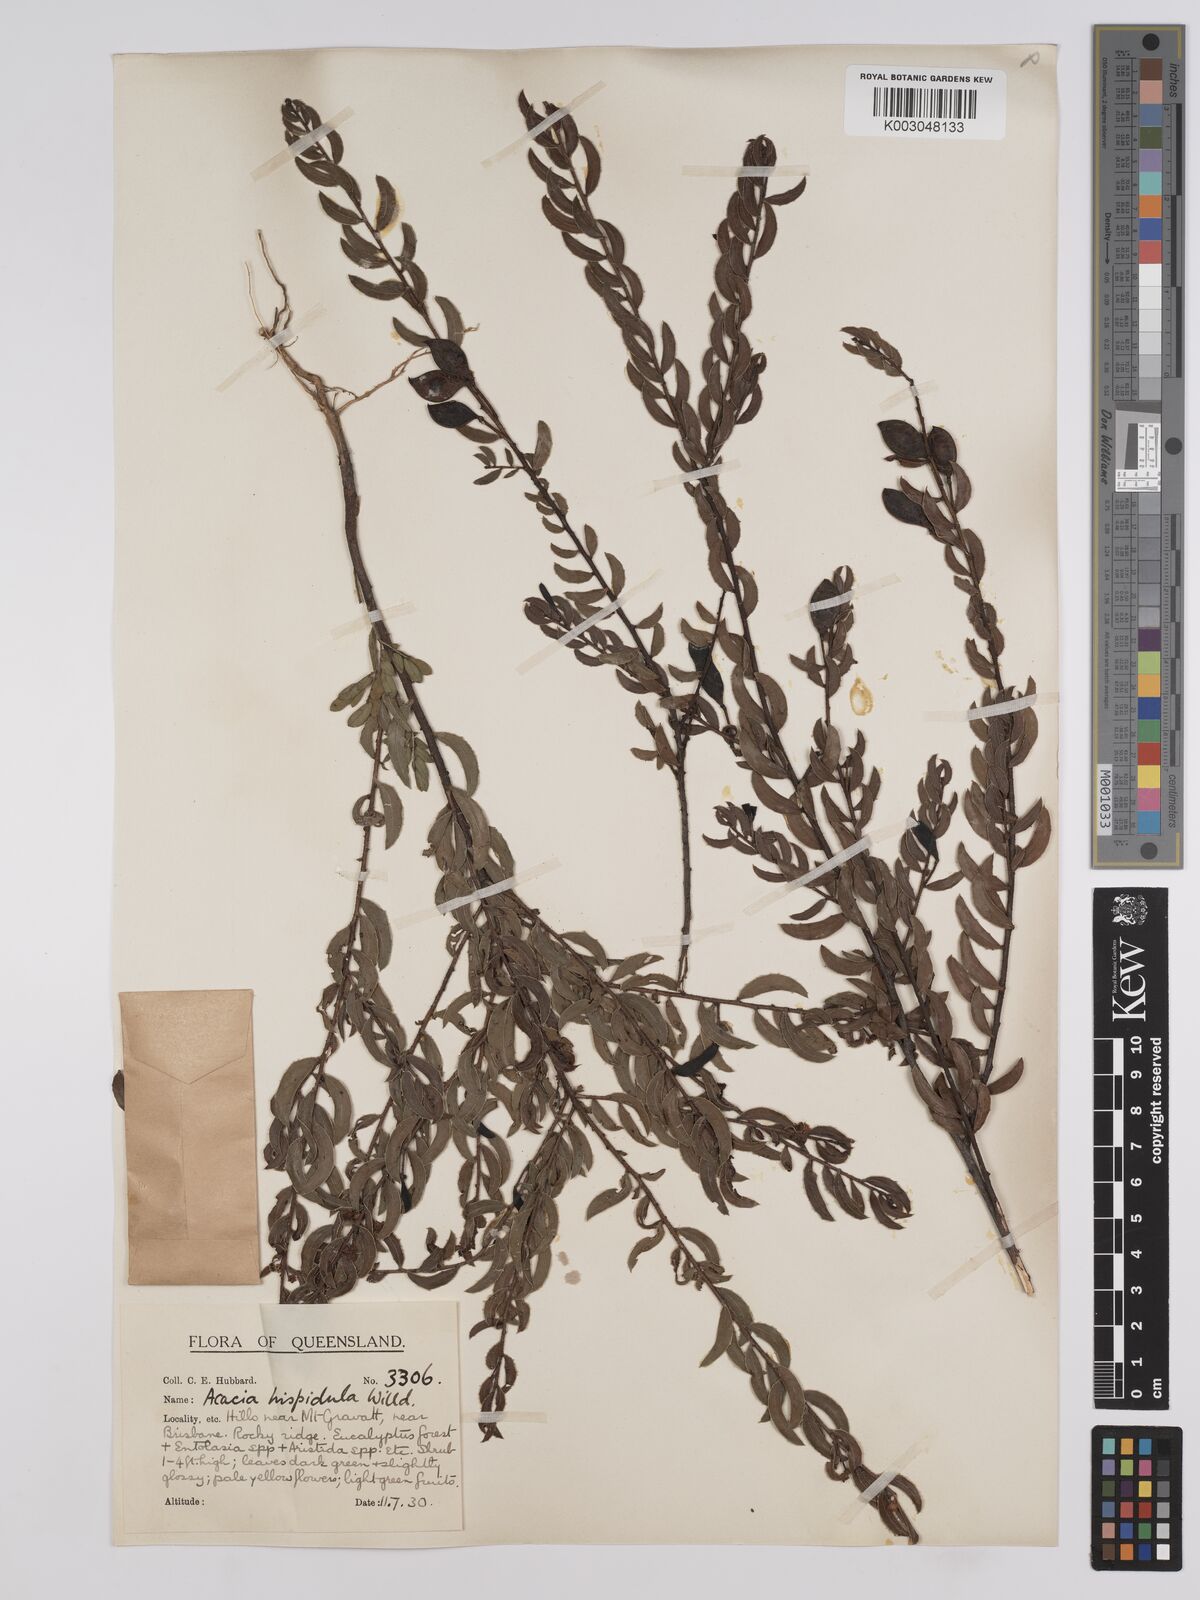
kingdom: Plantae
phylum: Tracheophyta
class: Magnoliopsida
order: Fabales
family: Fabaceae
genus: Acacia
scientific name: Acacia hispidula
